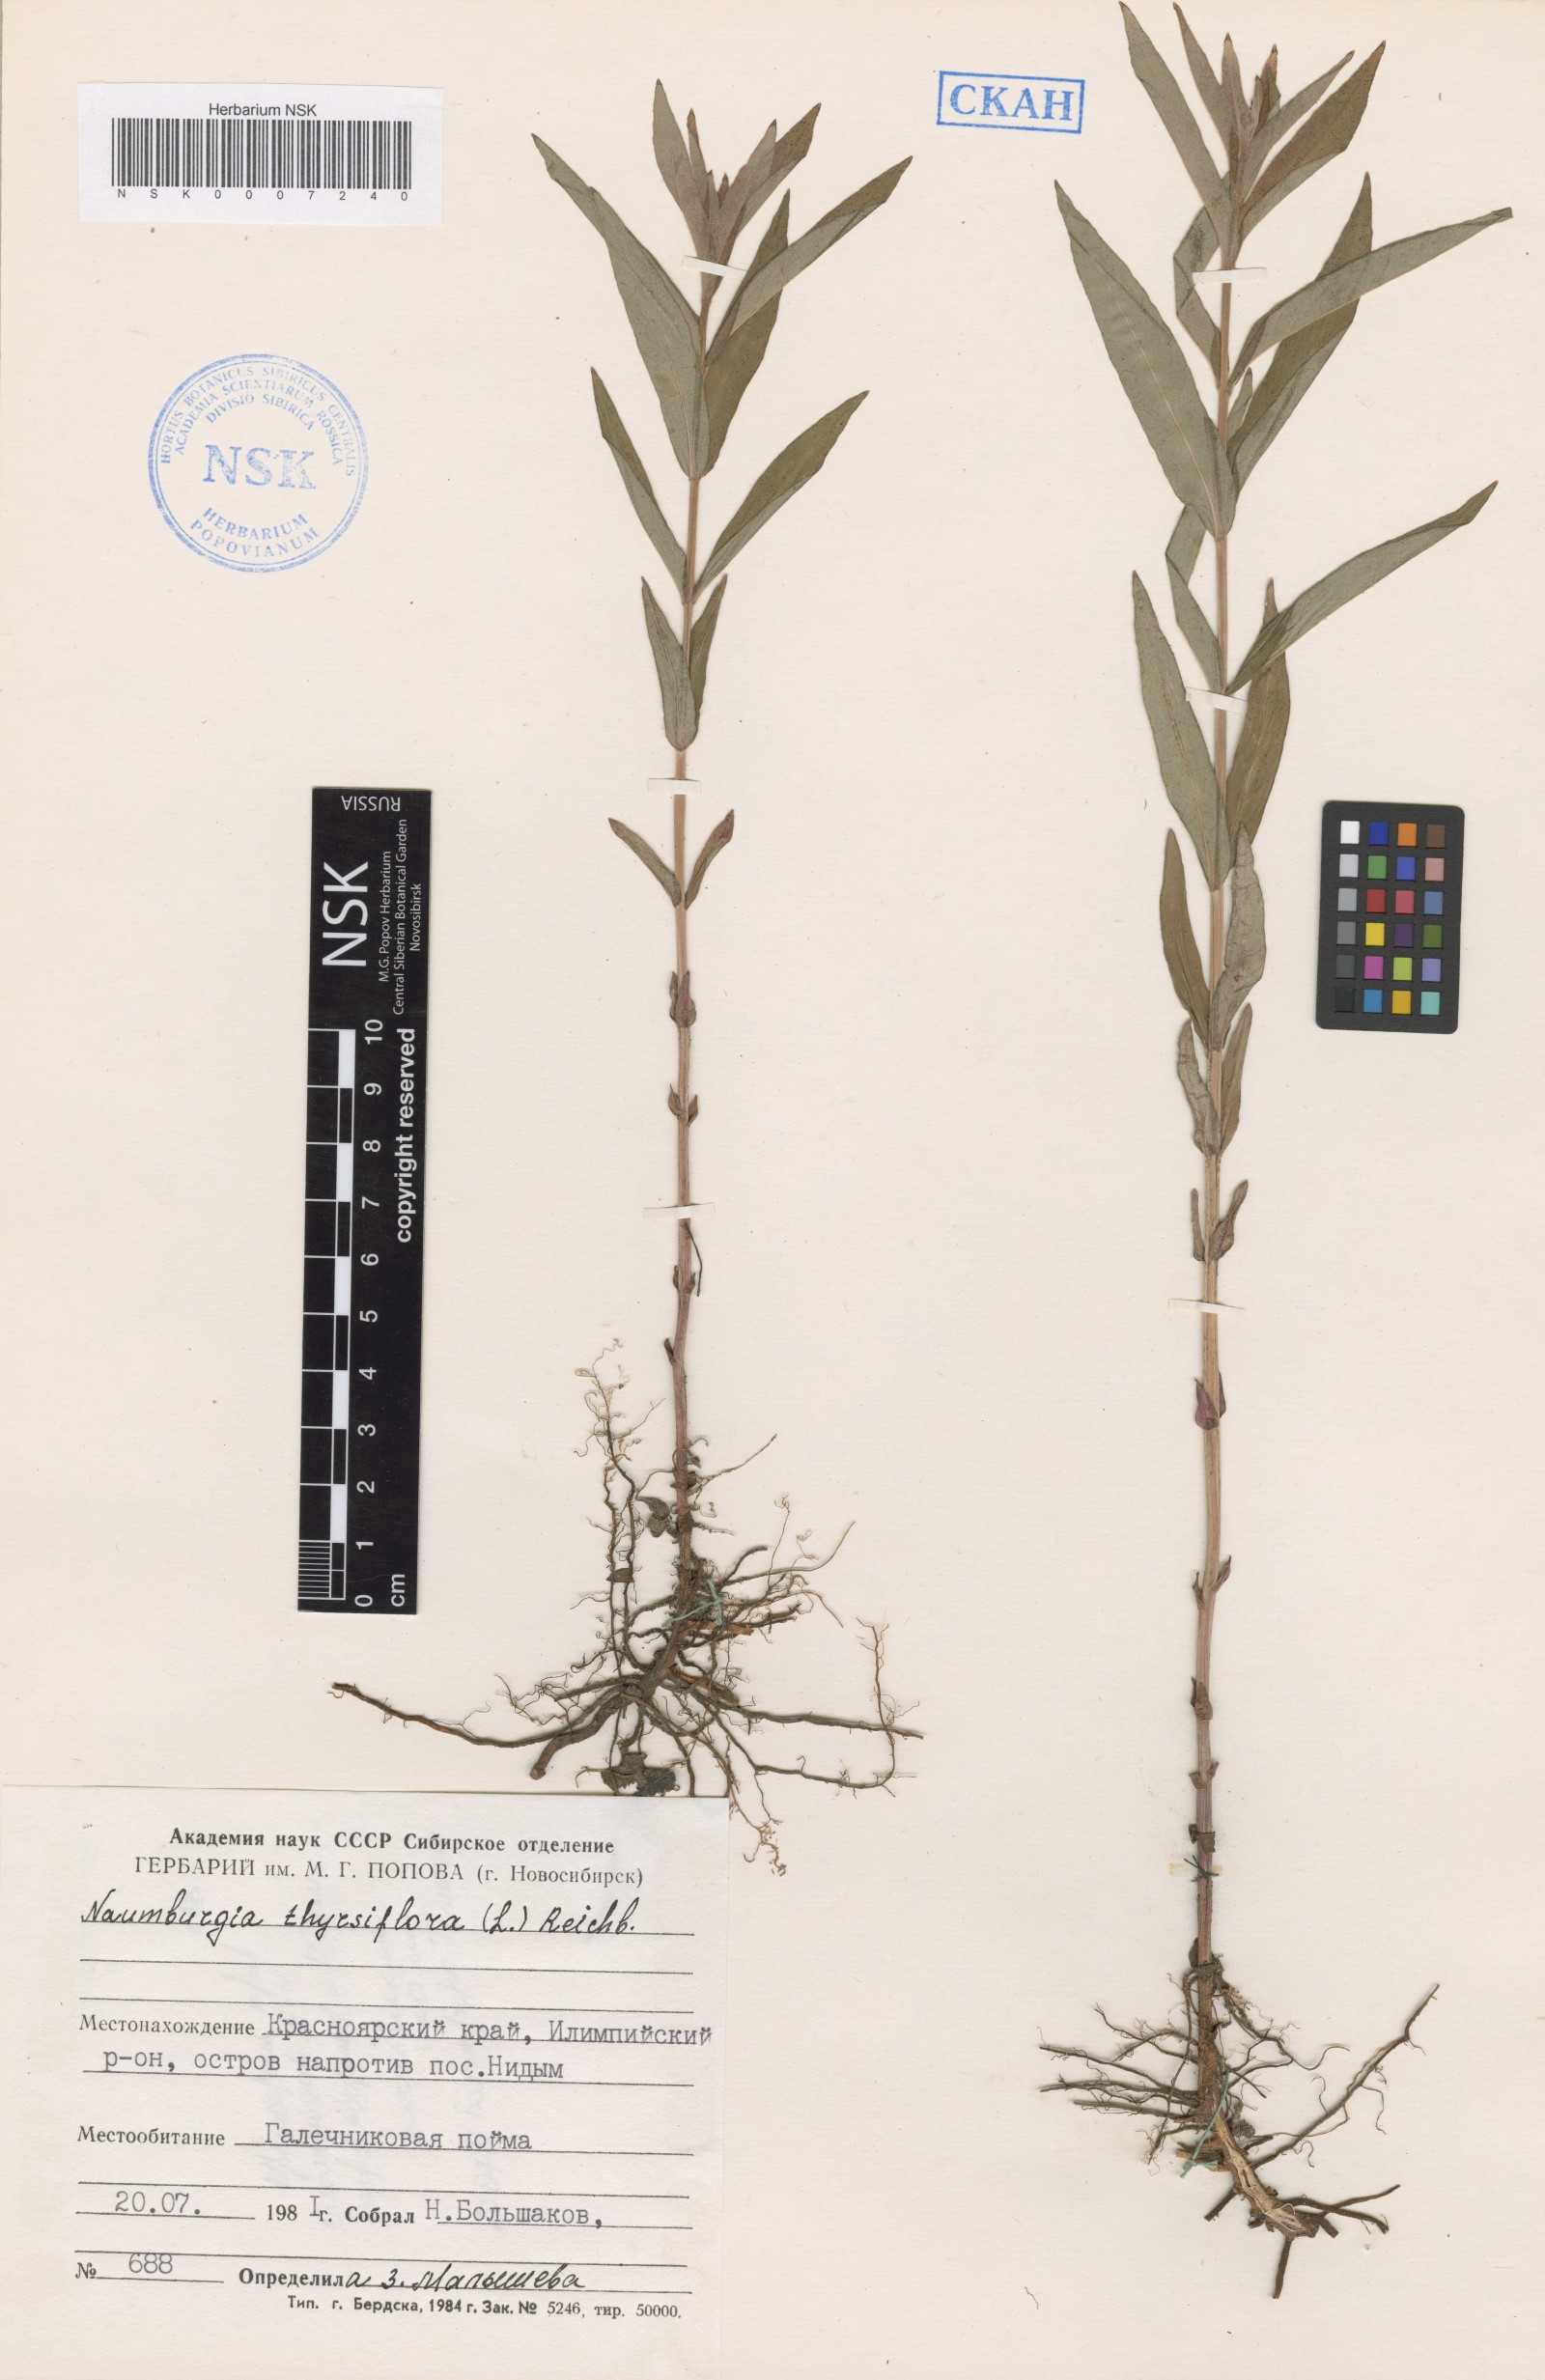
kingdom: Plantae
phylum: Tracheophyta
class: Magnoliopsida
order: Ericales
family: Primulaceae
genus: Lysimachia
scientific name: Lysimachia thyrsiflora
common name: Tufted loosestrife
